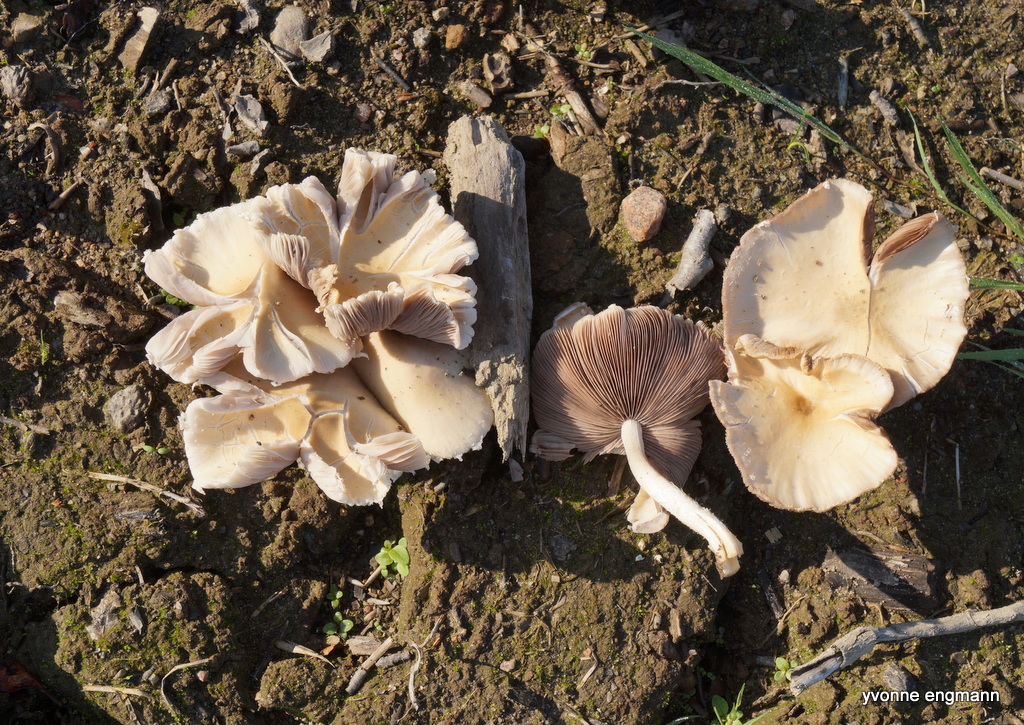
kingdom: Fungi
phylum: Basidiomycota
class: Agaricomycetes
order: Agaricales
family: Psathyrellaceae
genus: Candolleomyces
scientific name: Candolleomyces candolleanus
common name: Candolles mørkhat
